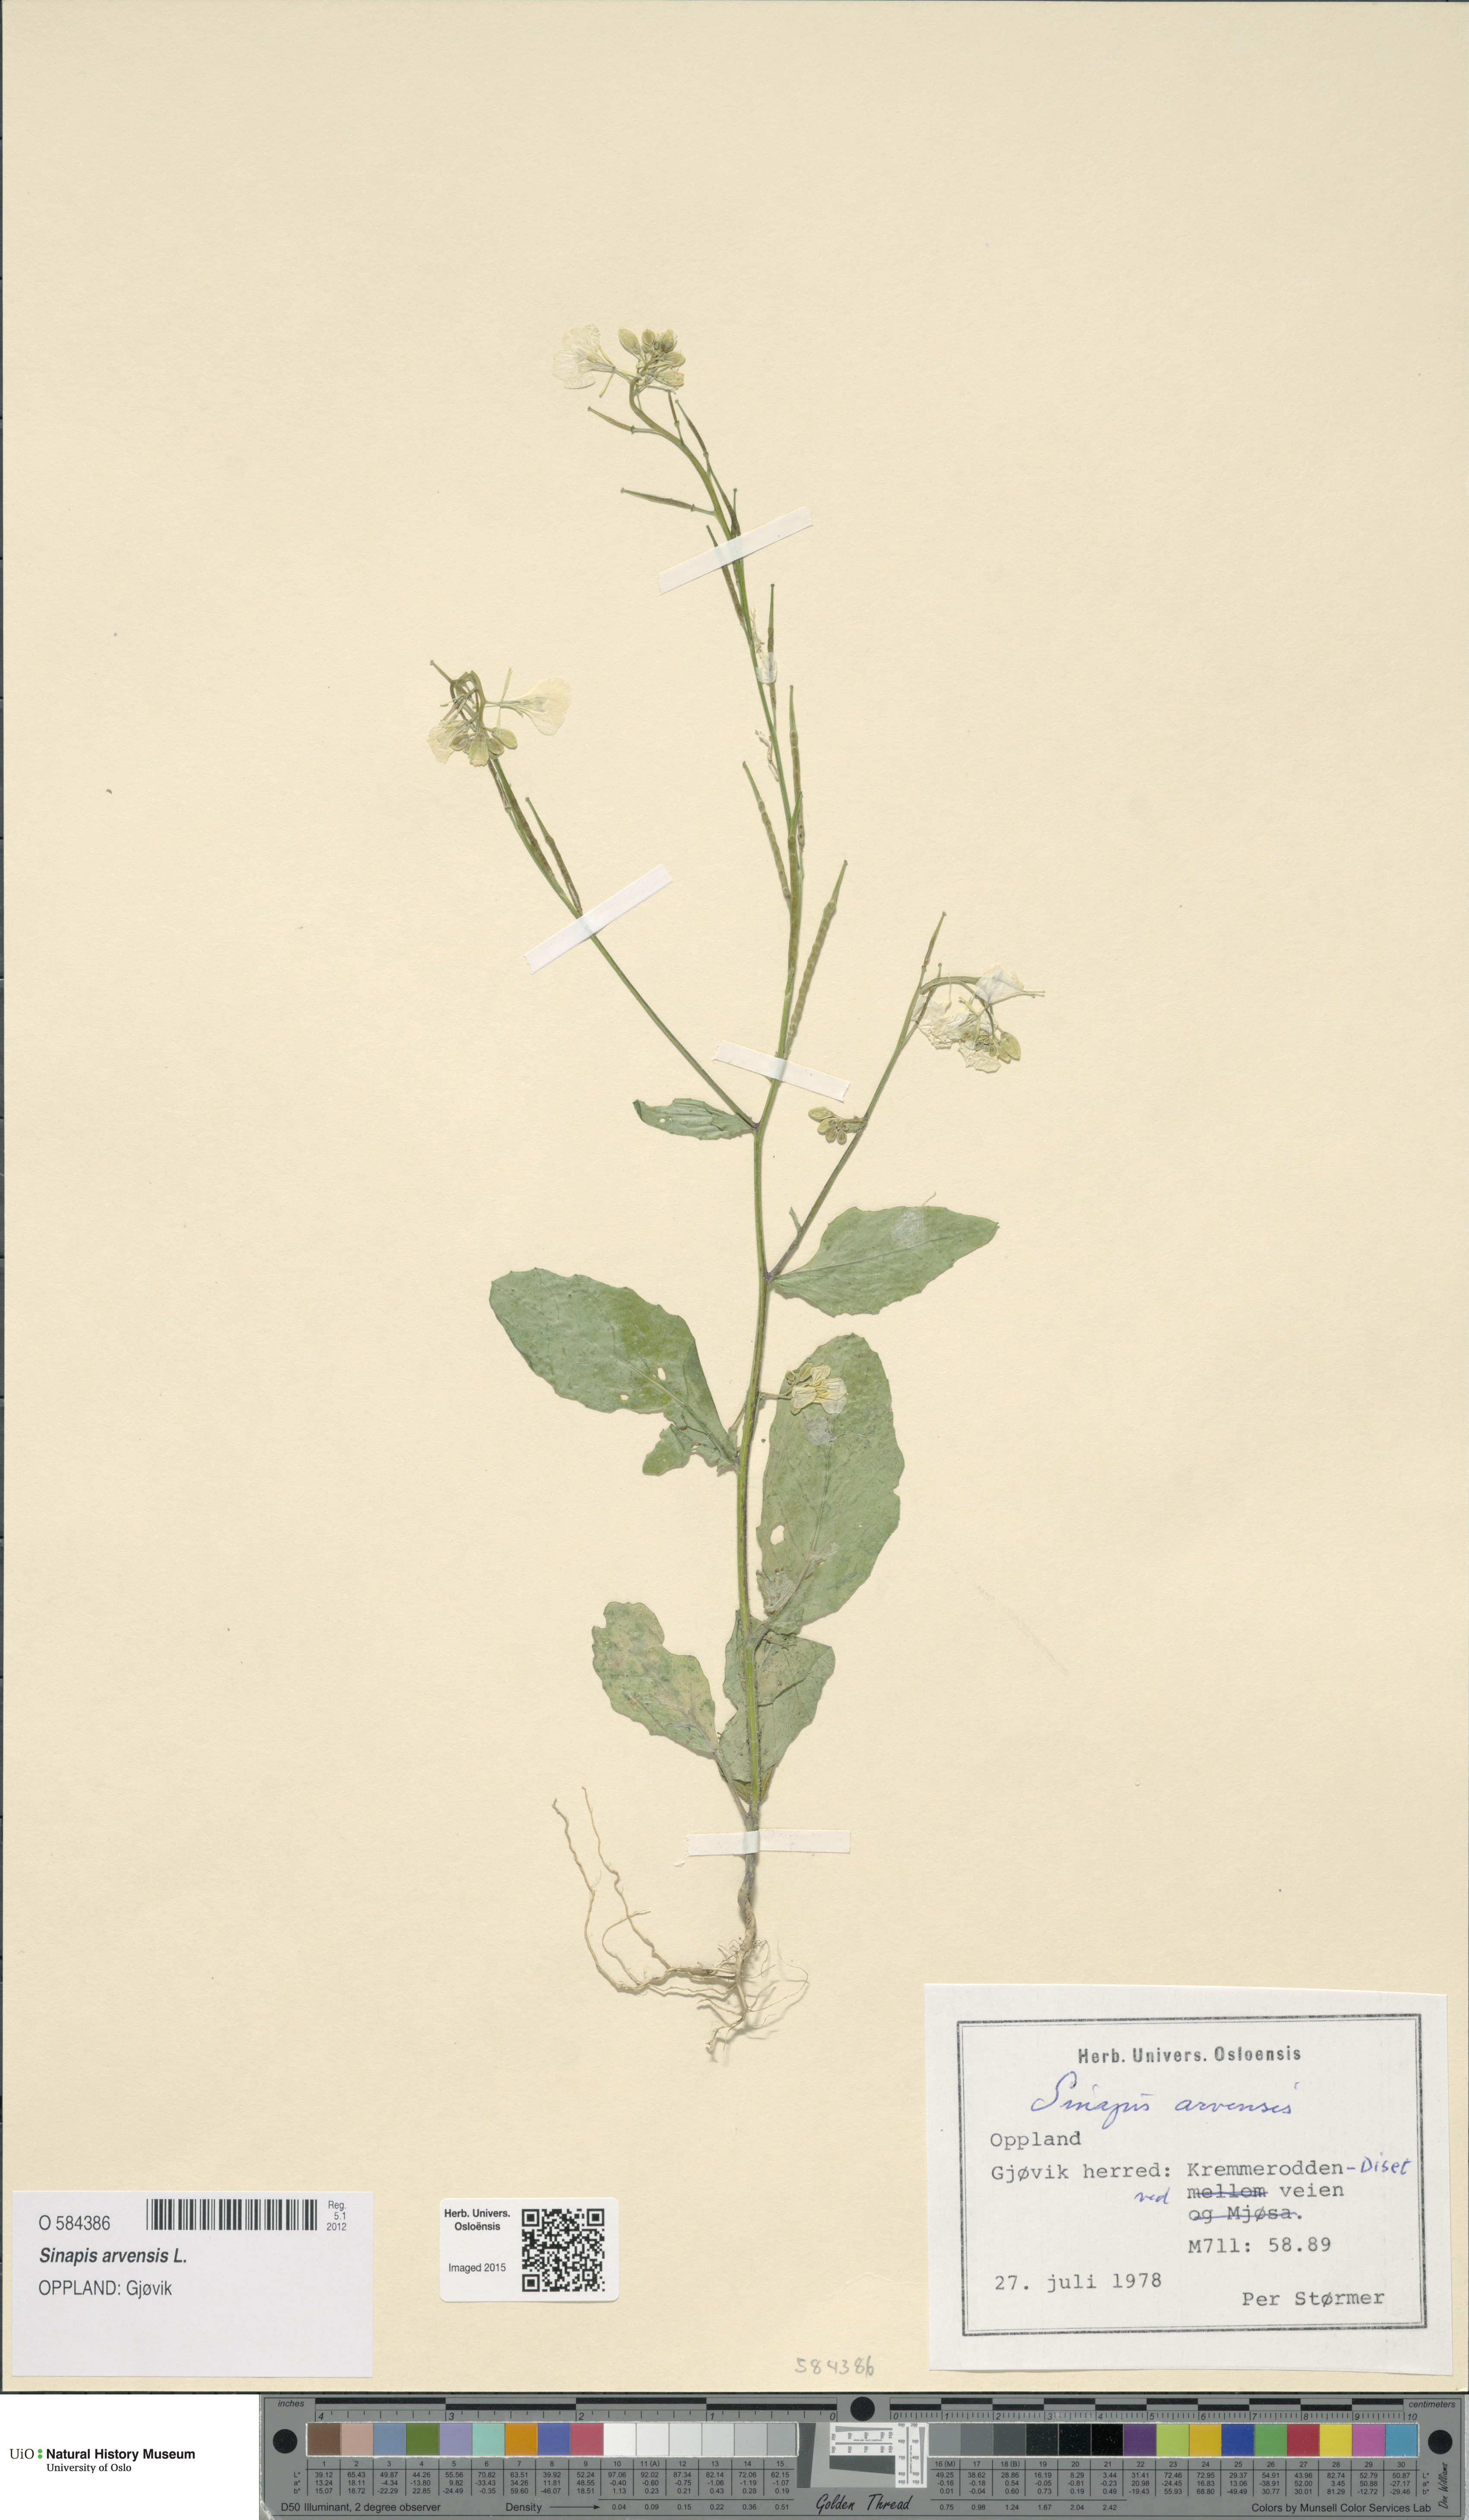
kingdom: Plantae
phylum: Tracheophyta
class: Magnoliopsida
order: Brassicales
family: Brassicaceae
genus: Sinapis
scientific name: Sinapis arvensis
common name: Charlock
